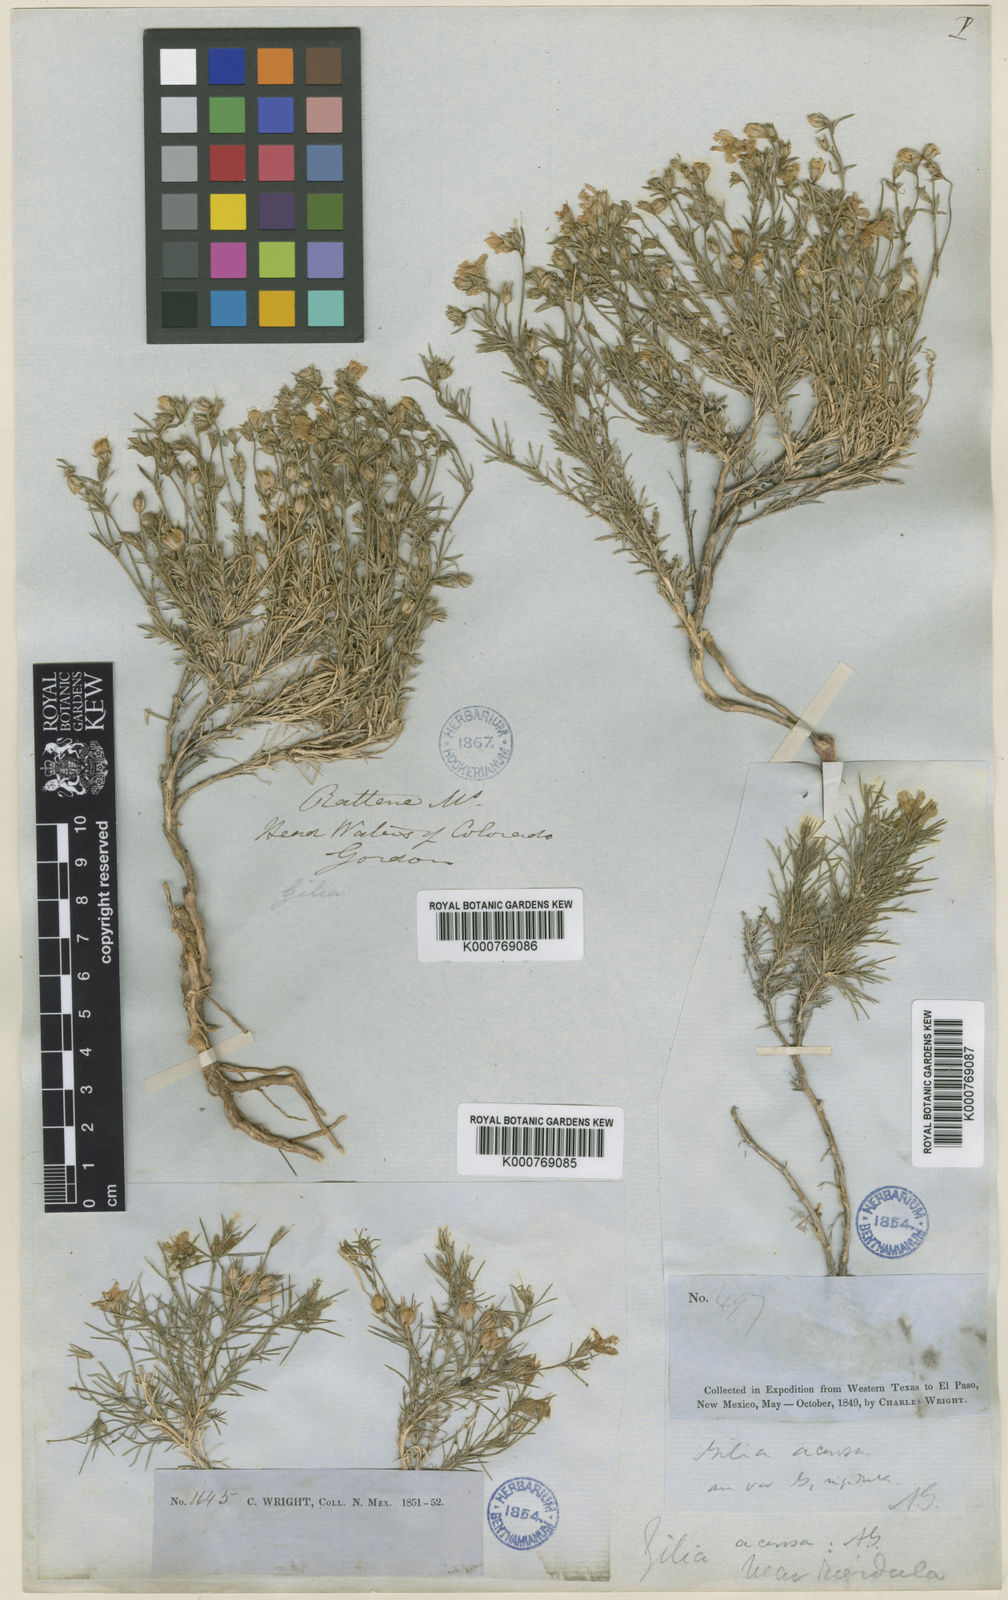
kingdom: Plantae
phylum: Tracheophyta
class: Magnoliopsida
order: Ericales
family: Polemoniaceae
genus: Giliastrum
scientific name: Giliastrum rigidulum
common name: Bluebowls
